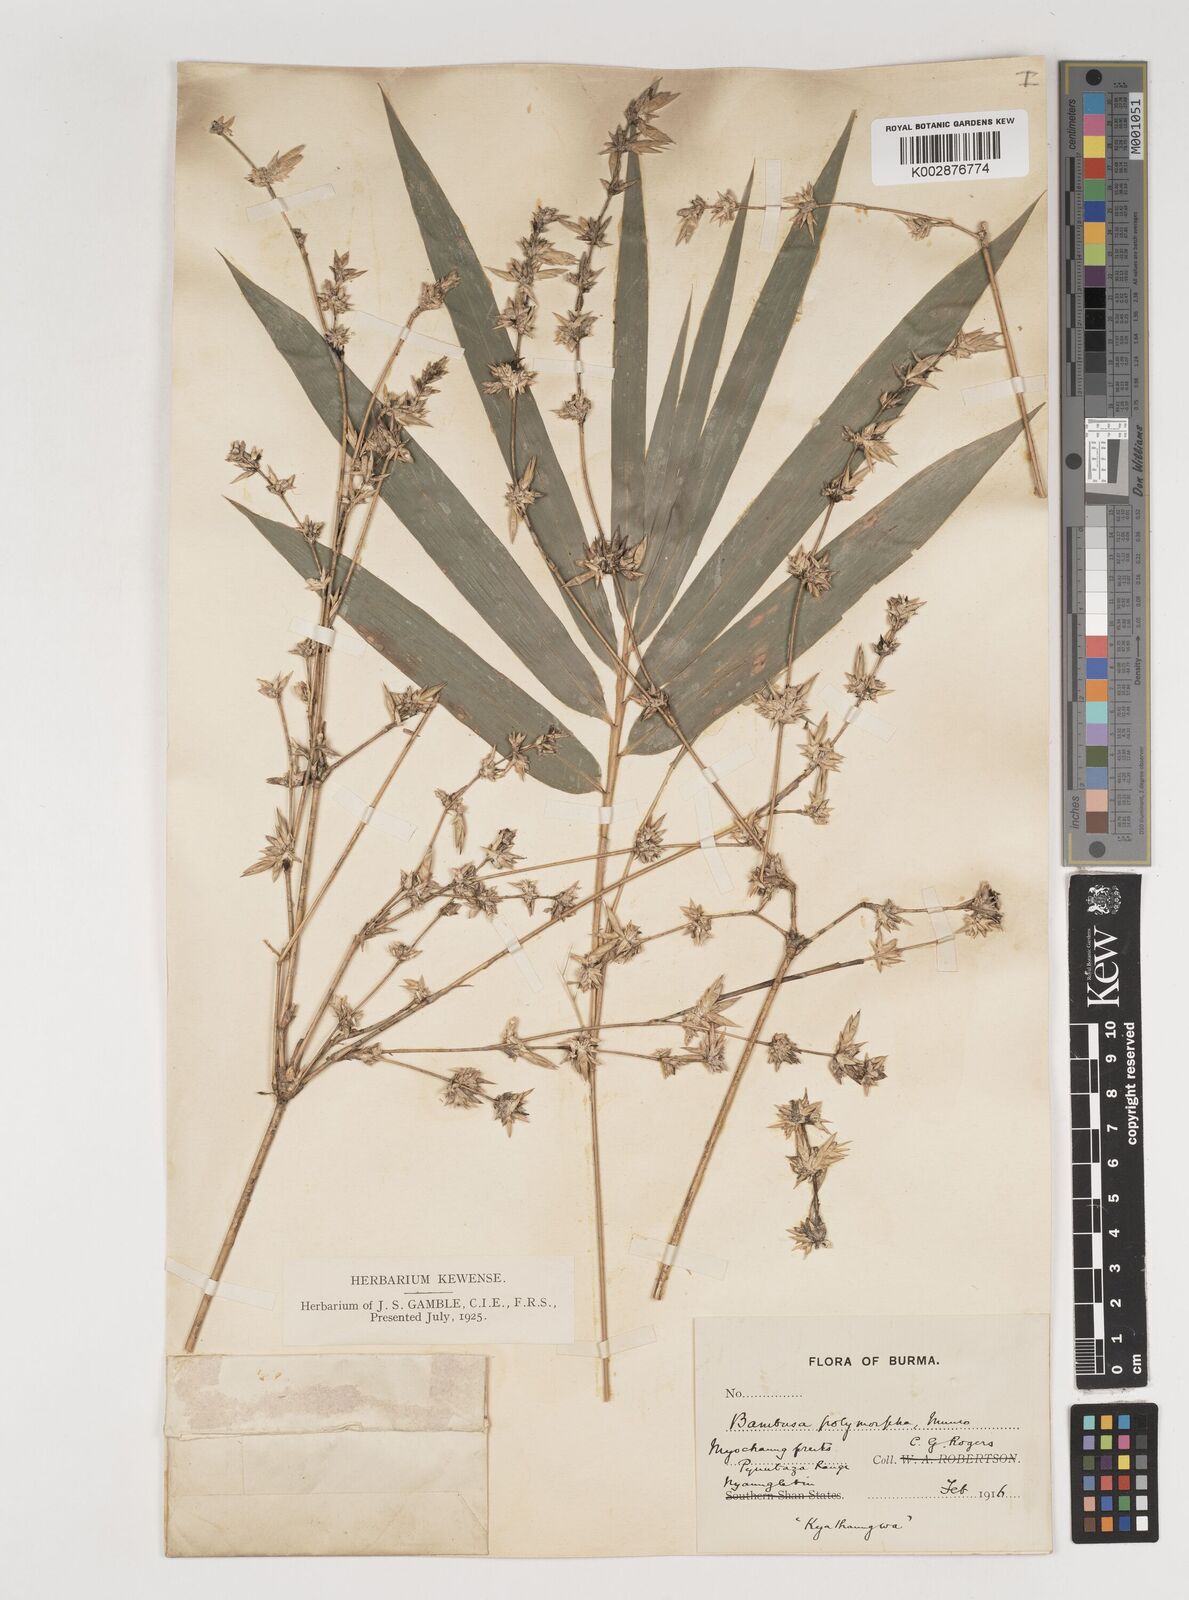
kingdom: Plantae
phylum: Tracheophyta
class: Liliopsida
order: Poales
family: Poaceae
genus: Bambusa
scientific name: Bambusa polymorpha
